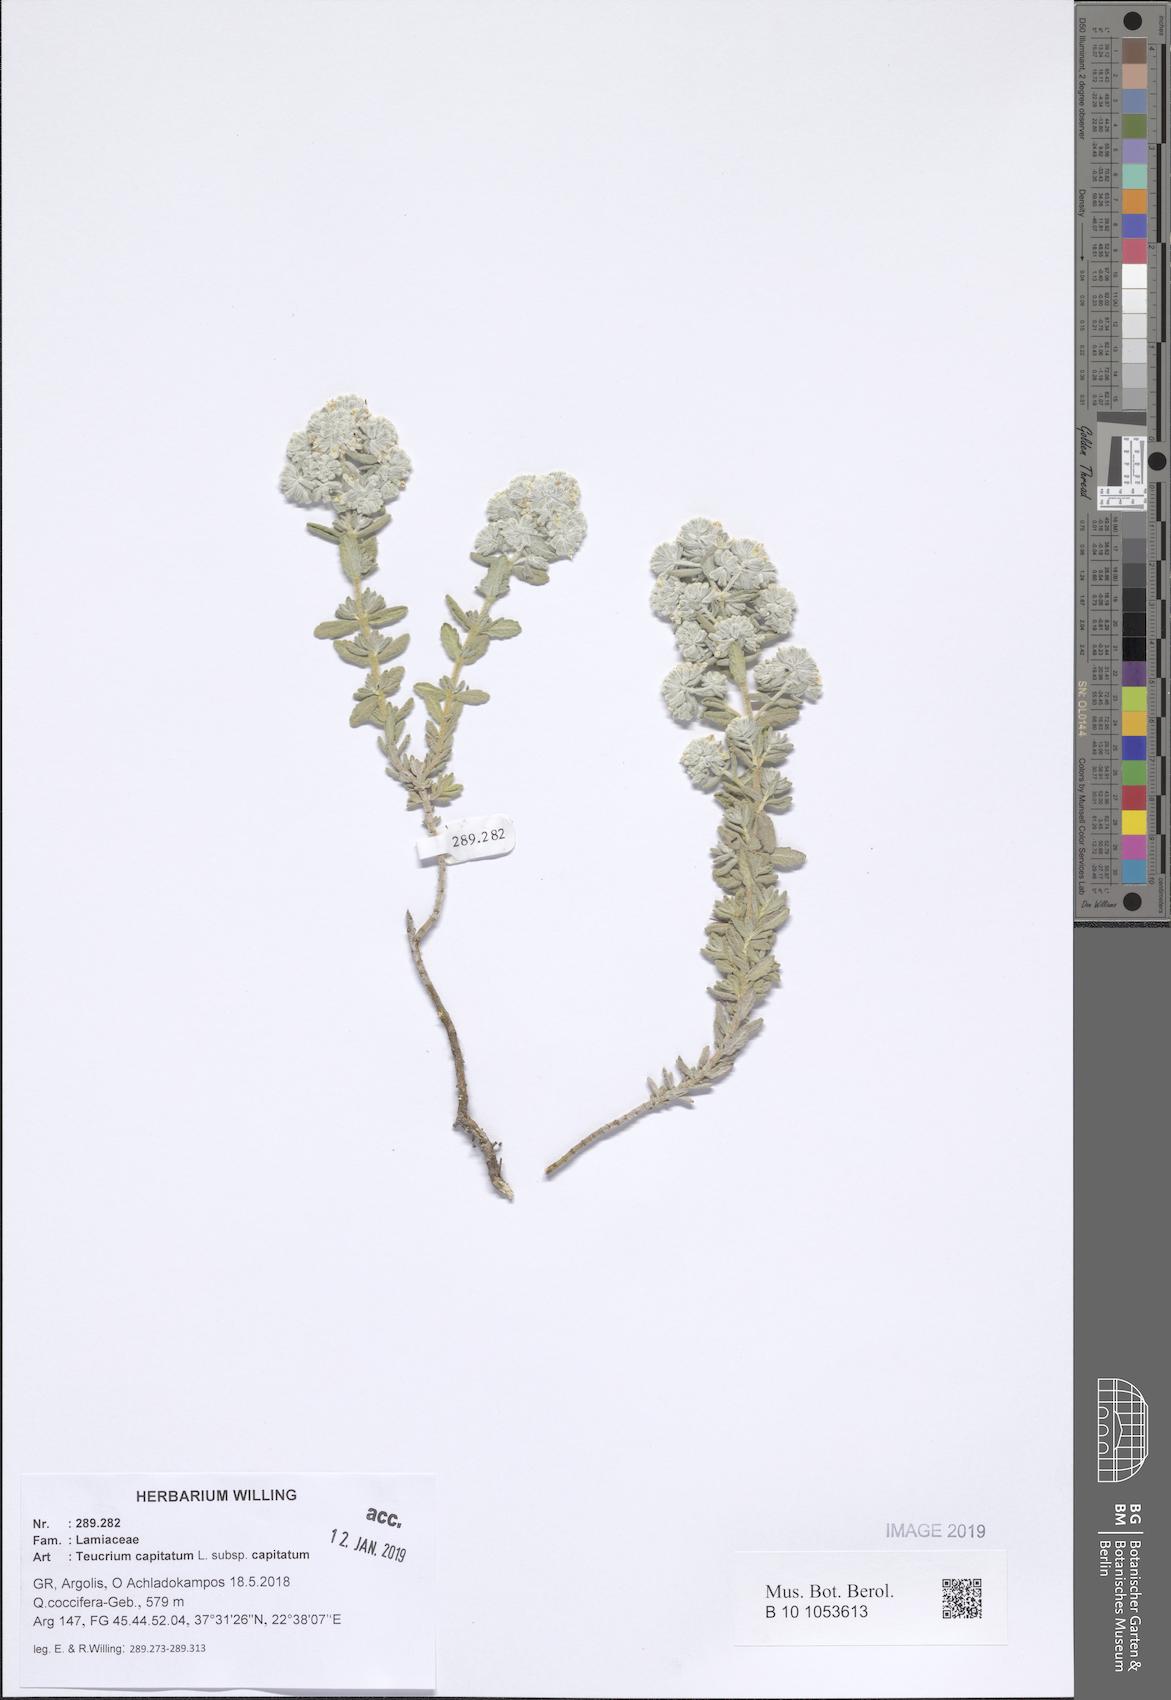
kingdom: Plantae
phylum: Tracheophyta
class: Magnoliopsida
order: Lamiales
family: Lamiaceae
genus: Teucrium
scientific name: Teucrium capitatum
